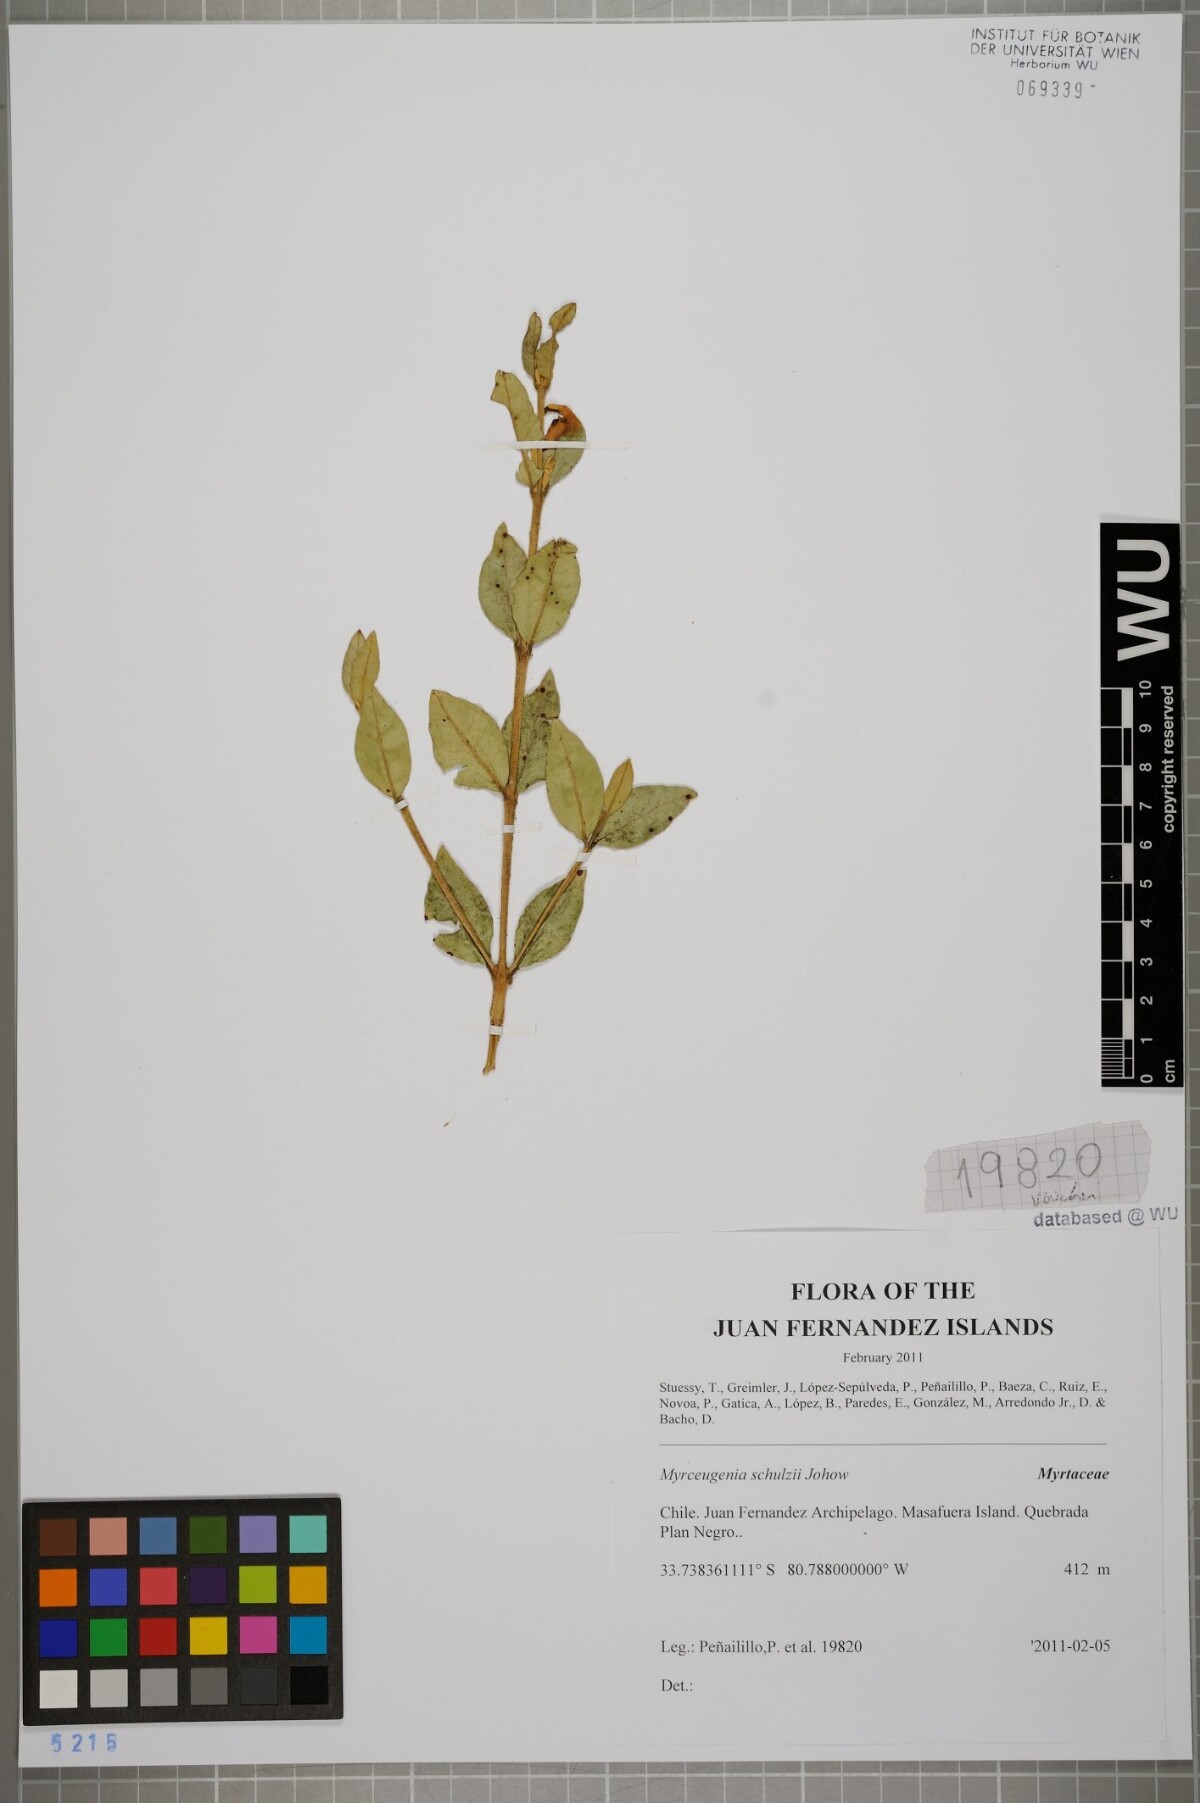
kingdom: Plantae
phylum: Tracheophyta
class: Magnoliopsida
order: Myrtales
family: Myrtaceae
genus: Myrceugenia
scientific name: Myrceugenia schulzei
